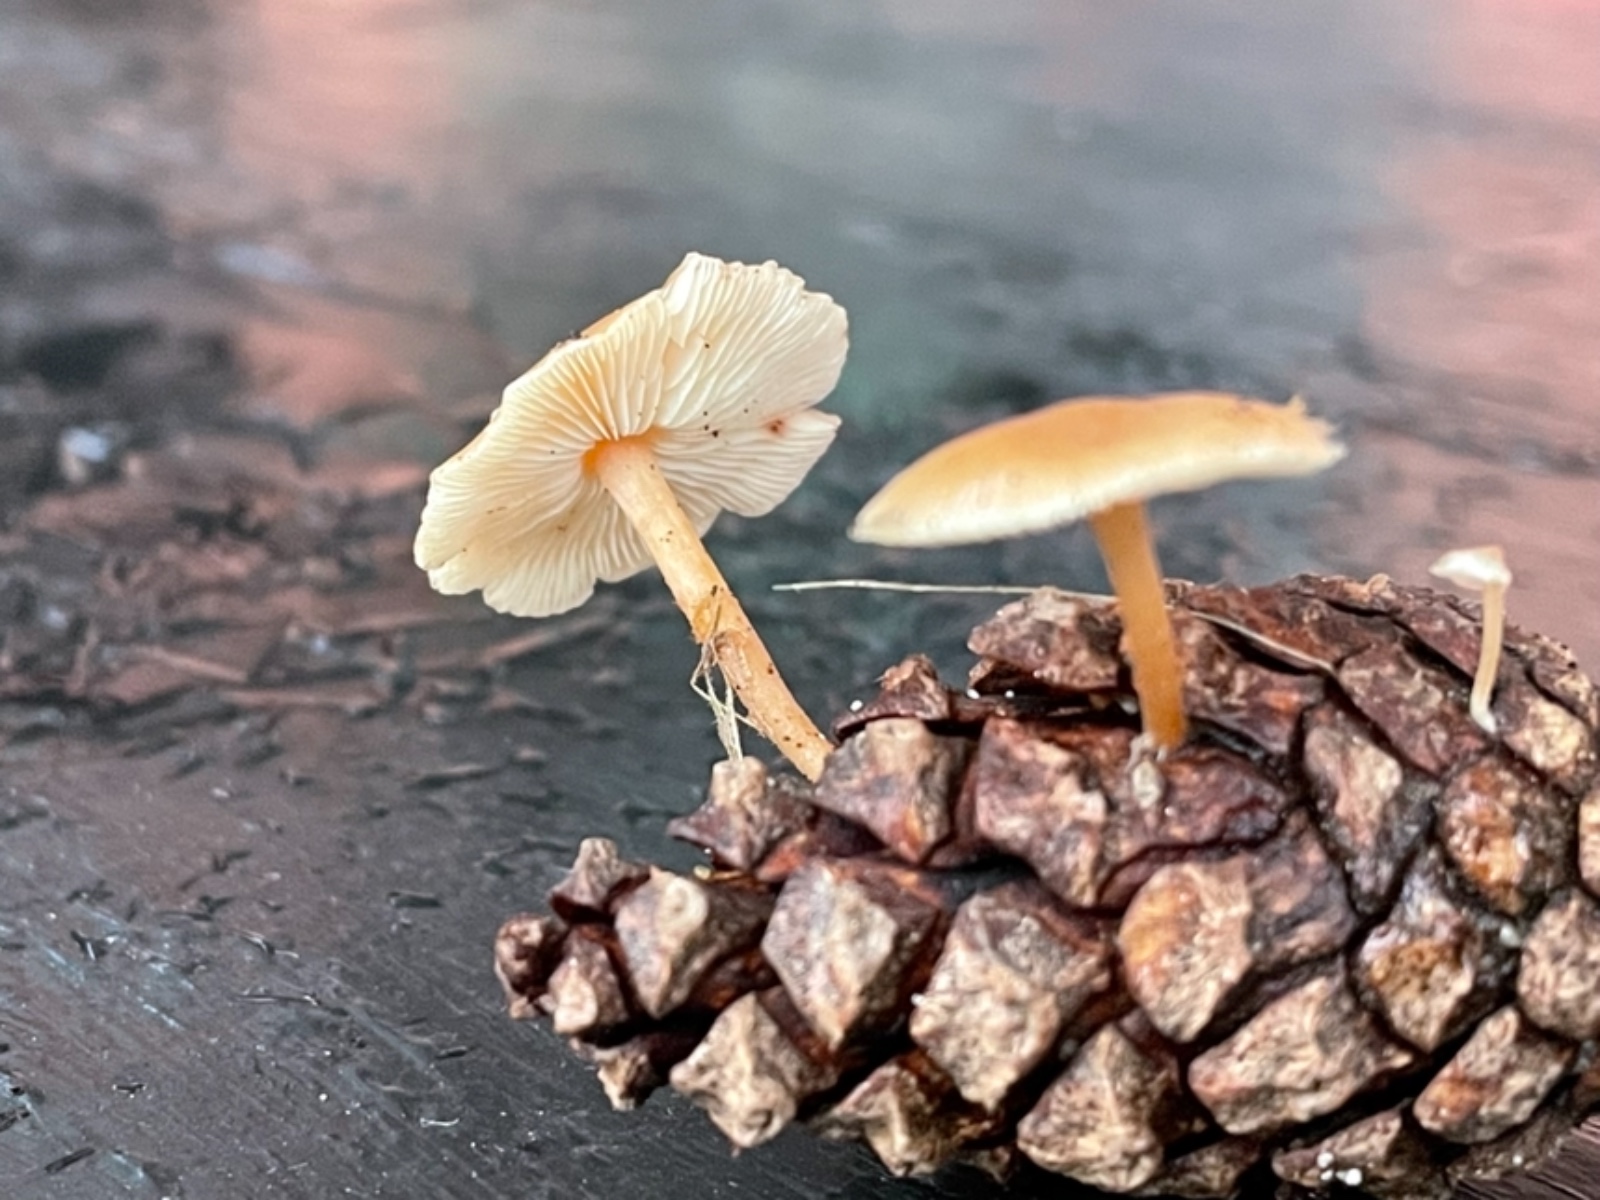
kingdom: Fungi
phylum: Basidiomycota
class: Agaricomycetes
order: Agaricales
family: Marasmiaceae
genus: Baeospora
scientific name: Baeospora myosura
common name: koglebruskhat
